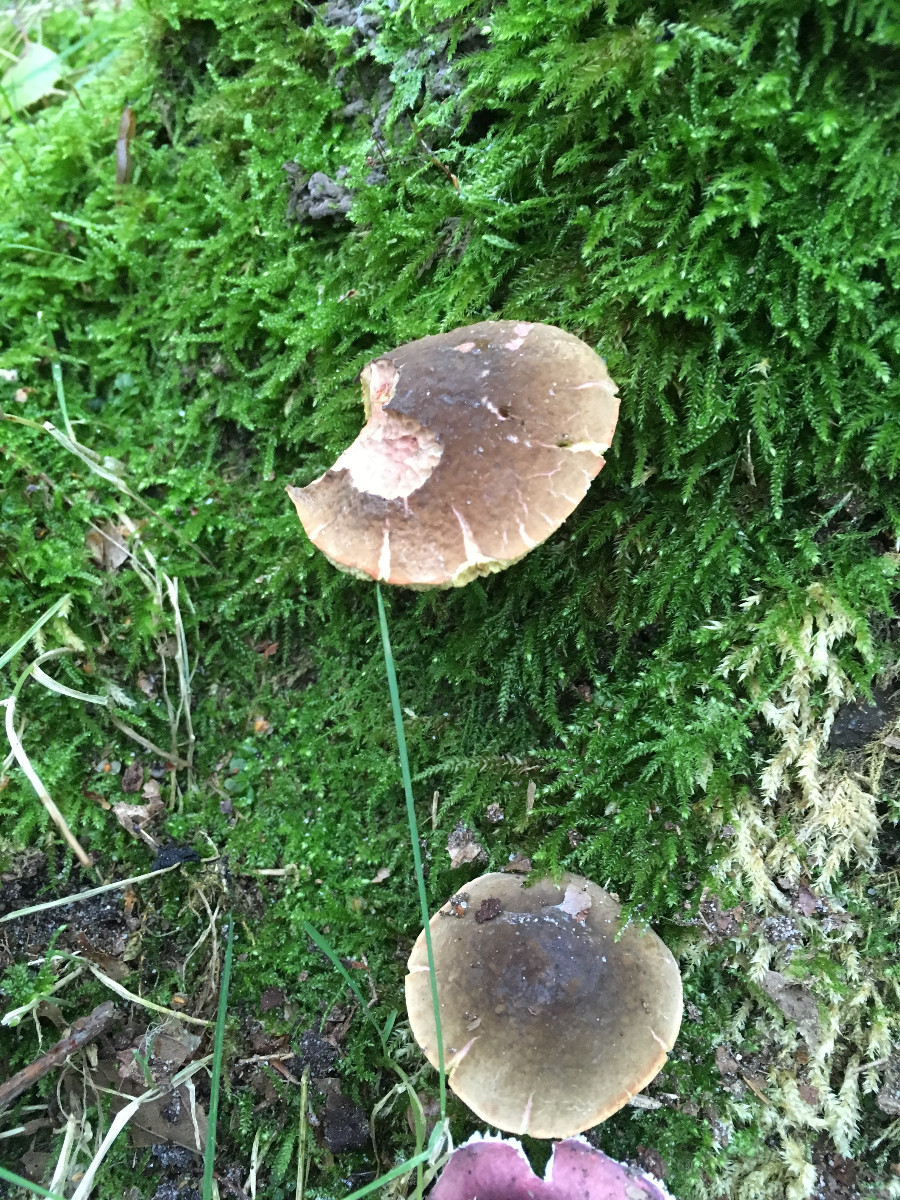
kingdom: Fungi
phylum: Basidiomycota
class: Agaricomycetes
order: Boletales
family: Boletaceae
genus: Xerocomellus
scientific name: Xerocomellus
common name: dværgrørhat
